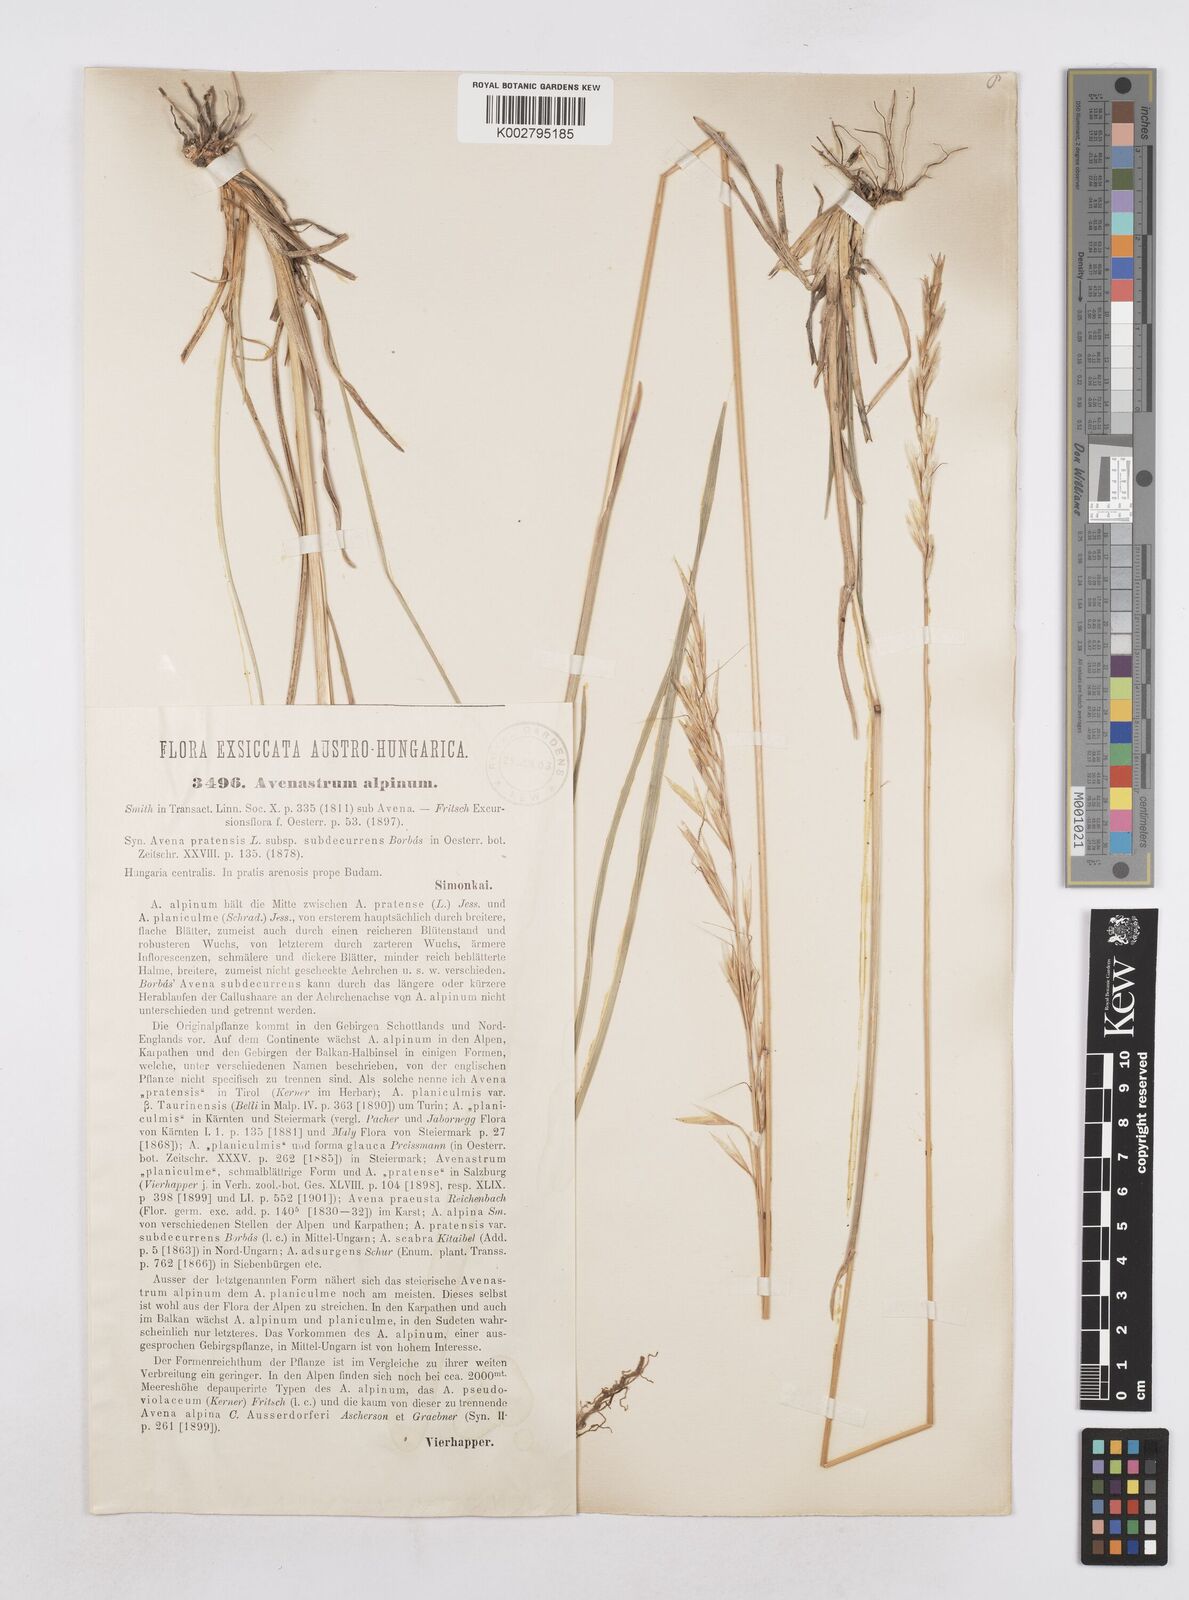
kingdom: Plantae
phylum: Tracheophyta
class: Liliopsida
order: Poales
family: Poaceae
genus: Helictochloa
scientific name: Helictochloa pratensis
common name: Meadow oat grass
